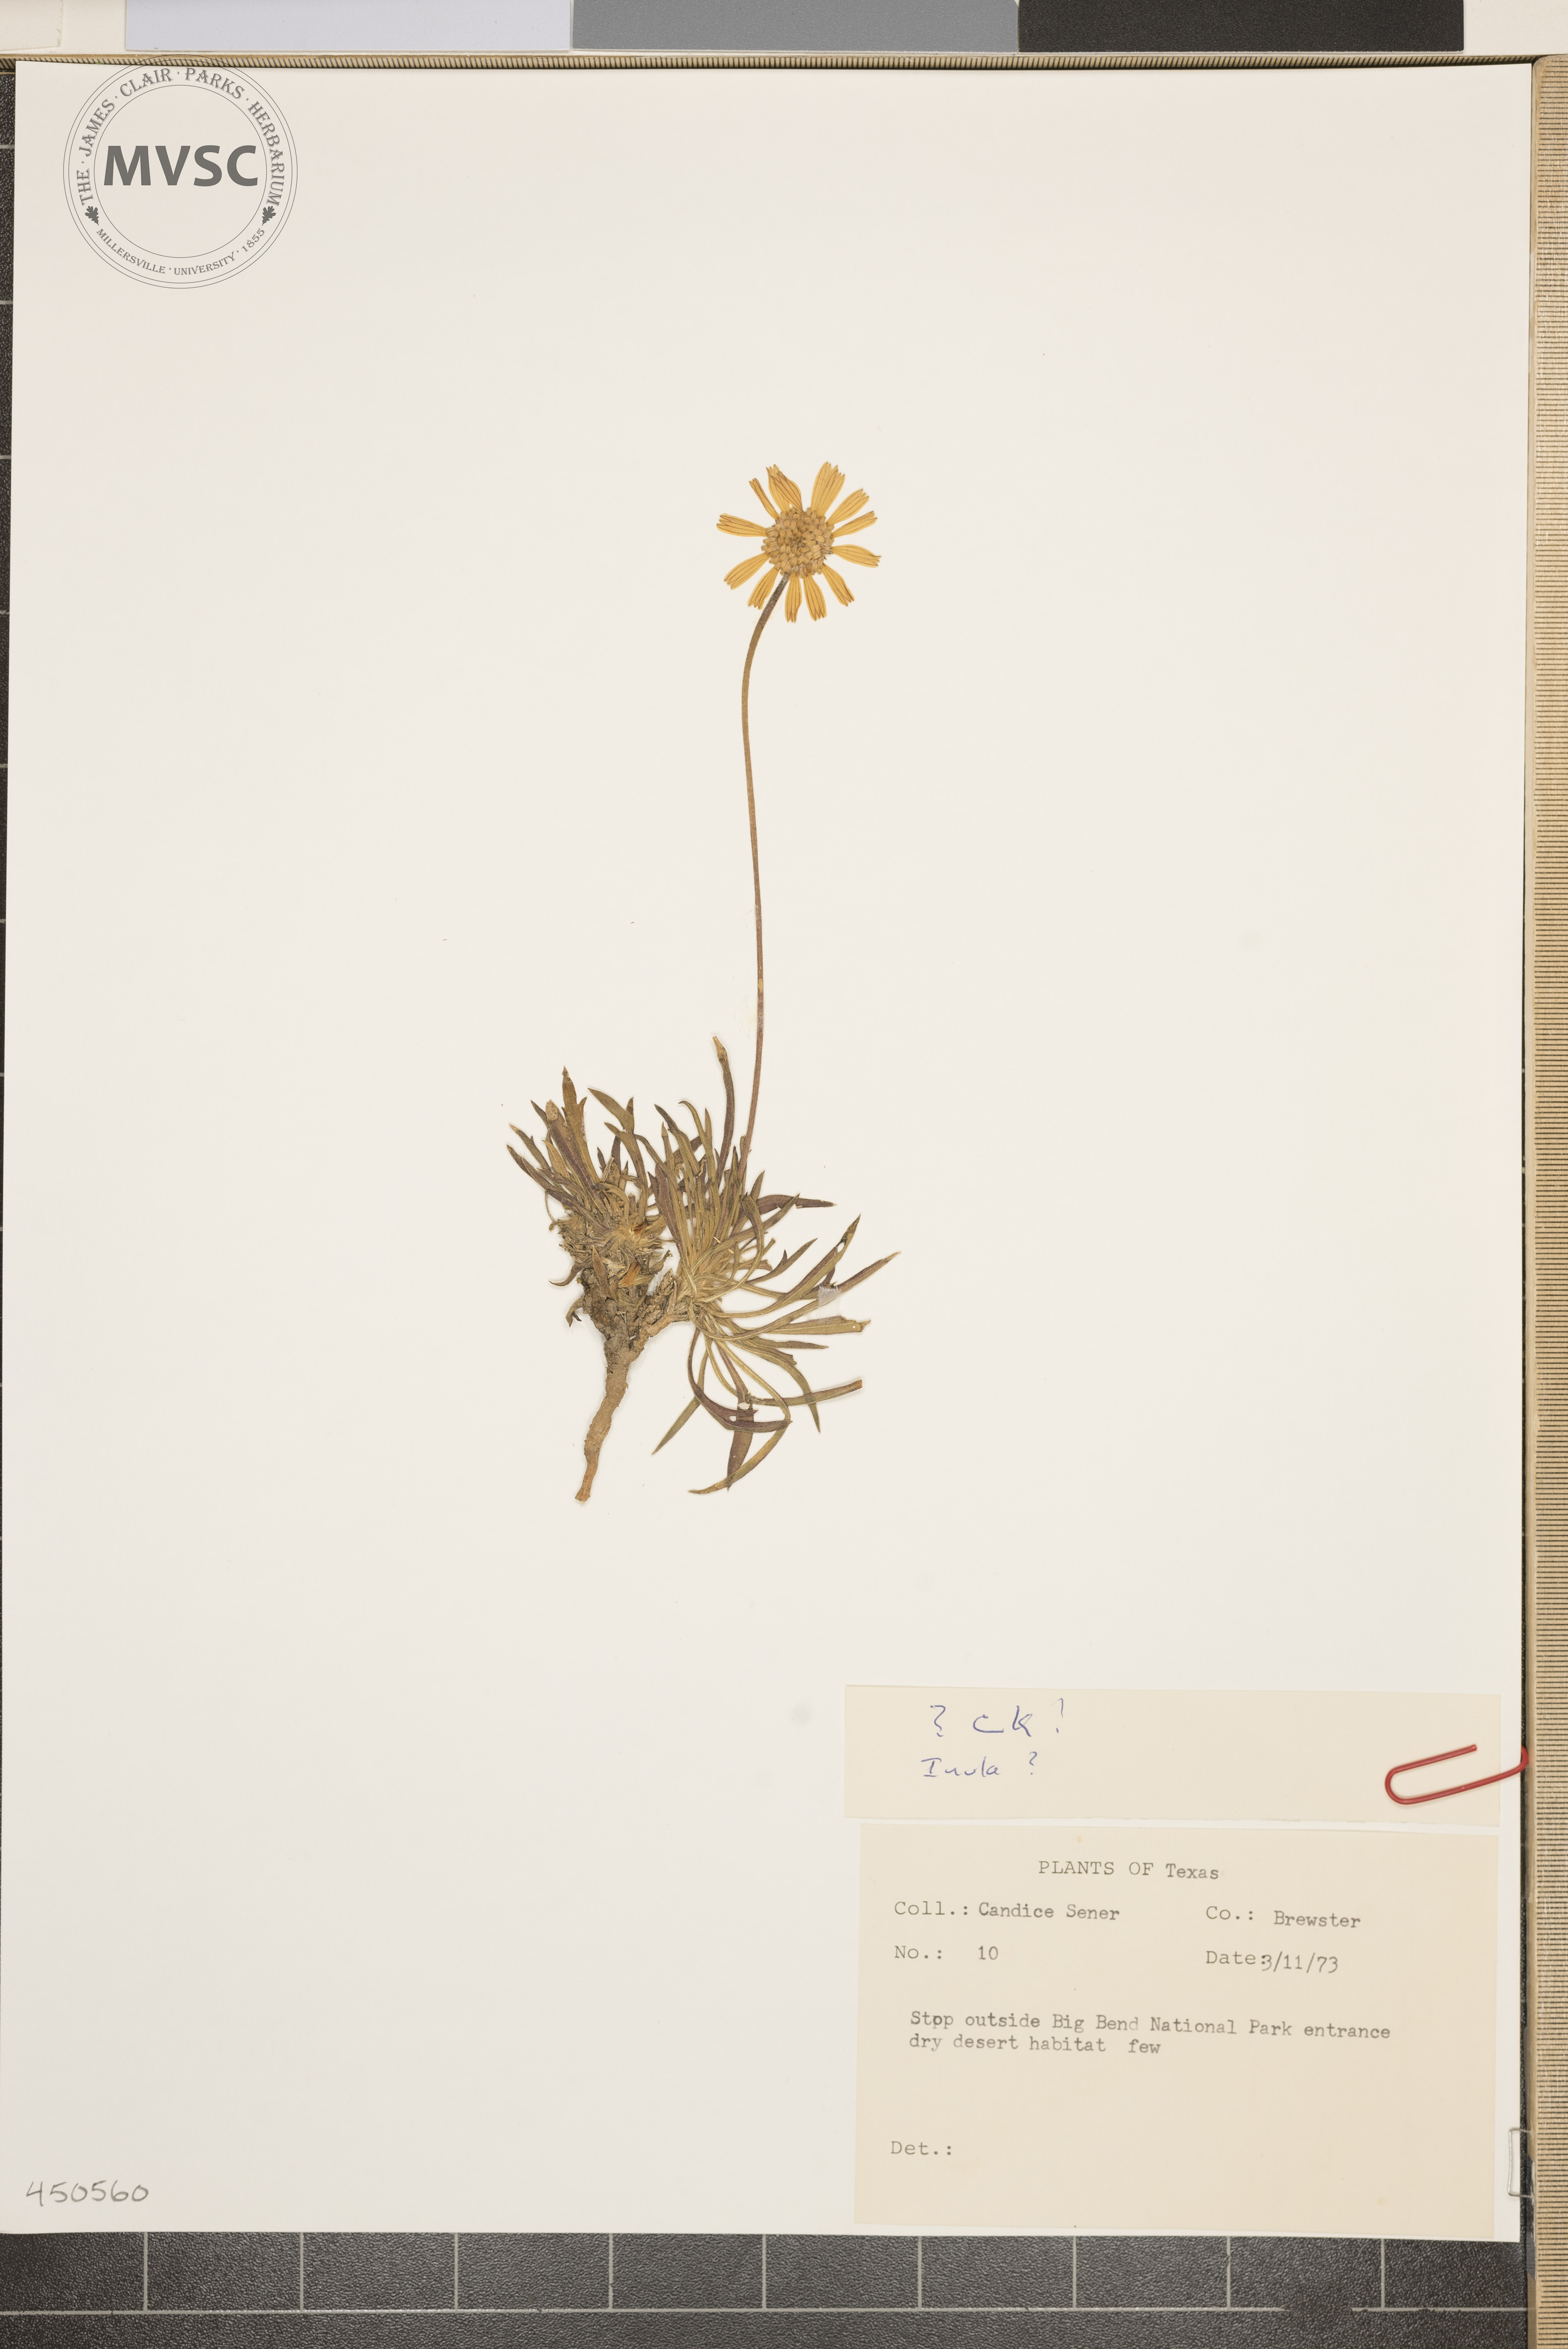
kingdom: Plantae
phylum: Tracheophyta
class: Magnoliopsida
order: Asterales
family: Asteraceae
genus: Inula
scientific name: Inula
